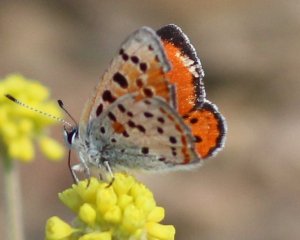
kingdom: Animalia
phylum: Arthropoda
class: Insecta
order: Lepidoptera
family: Lycaenidae
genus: Lycaena
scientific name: Lycaena cupreus
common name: Lustrous Copper
